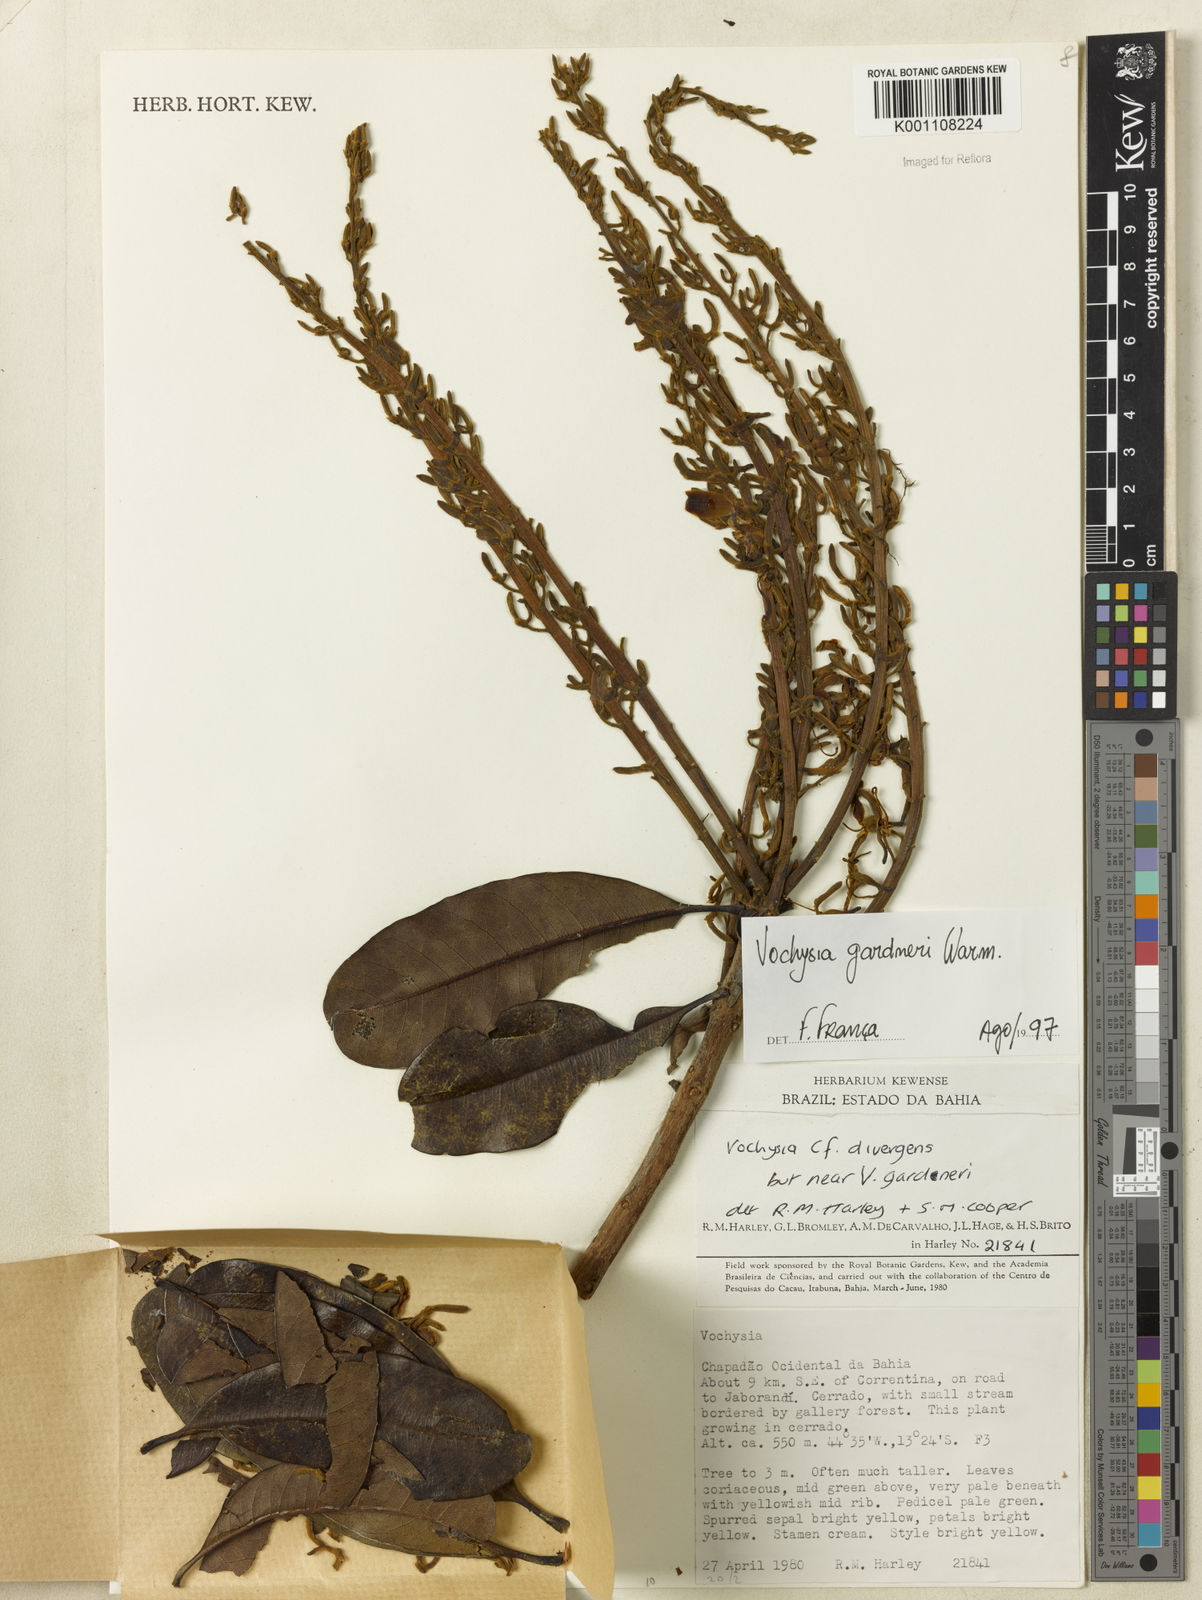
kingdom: Plantae
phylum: Tracheophyta
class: Magnoliopsida
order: Myrtales
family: Vochysiaceae
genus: Vochysia
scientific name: Vochysia gardneri
